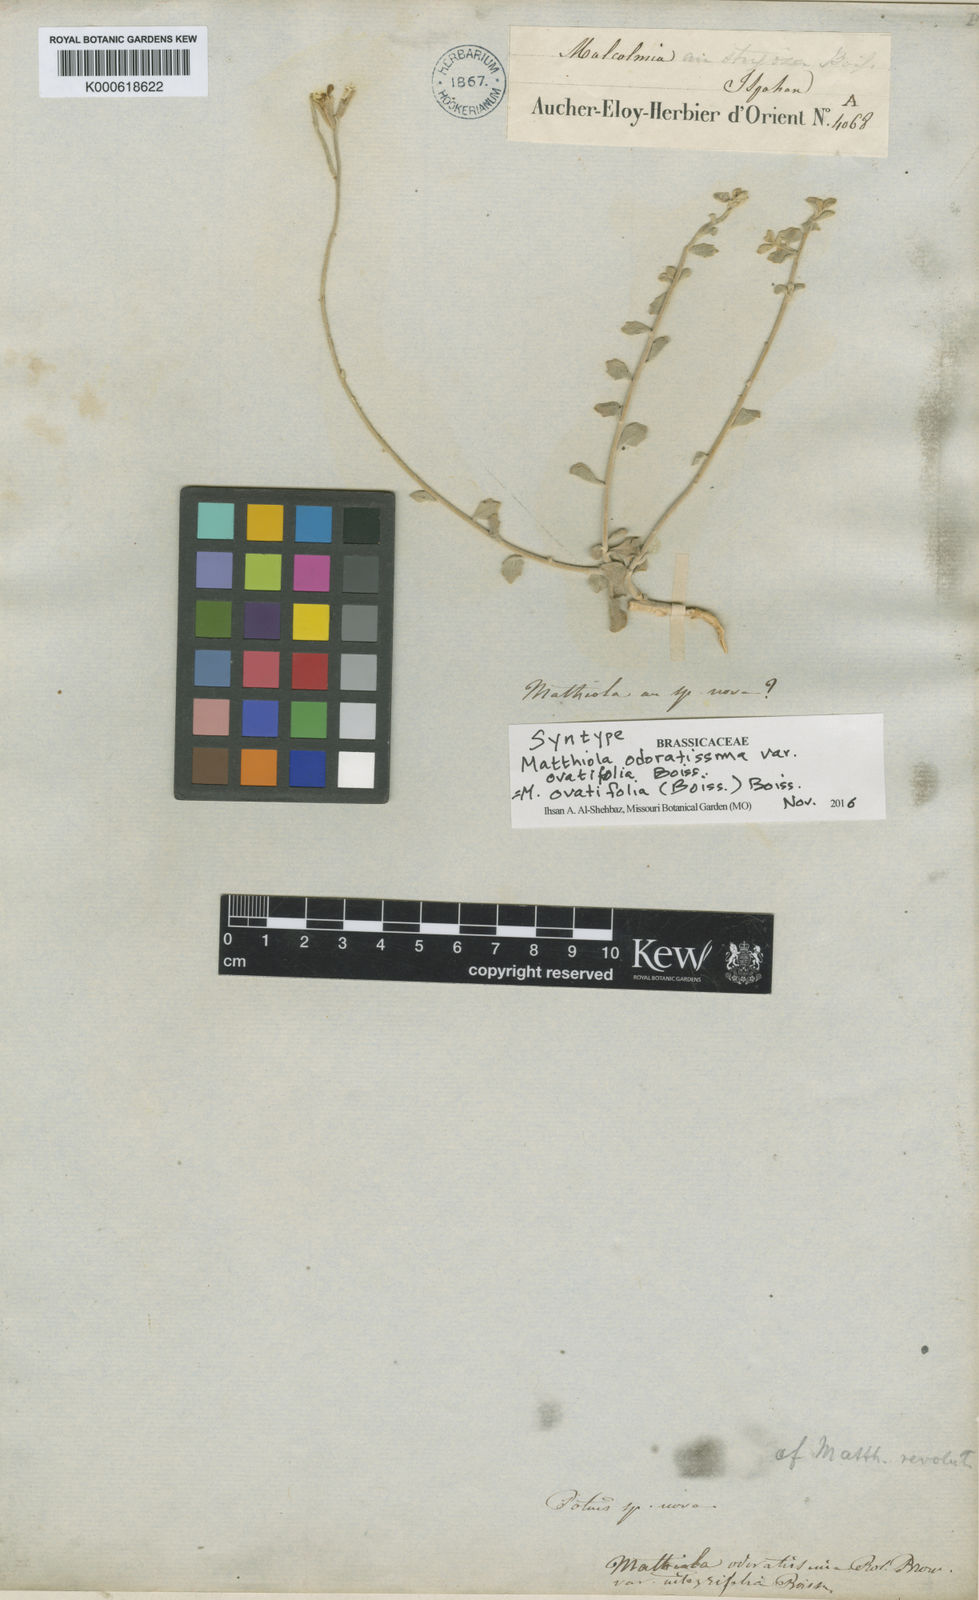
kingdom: Plantae
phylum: Tracheophyta
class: Magnoliopsida
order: Brassicales
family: Brassicaceae
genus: Matthiola
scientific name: Matthiola
